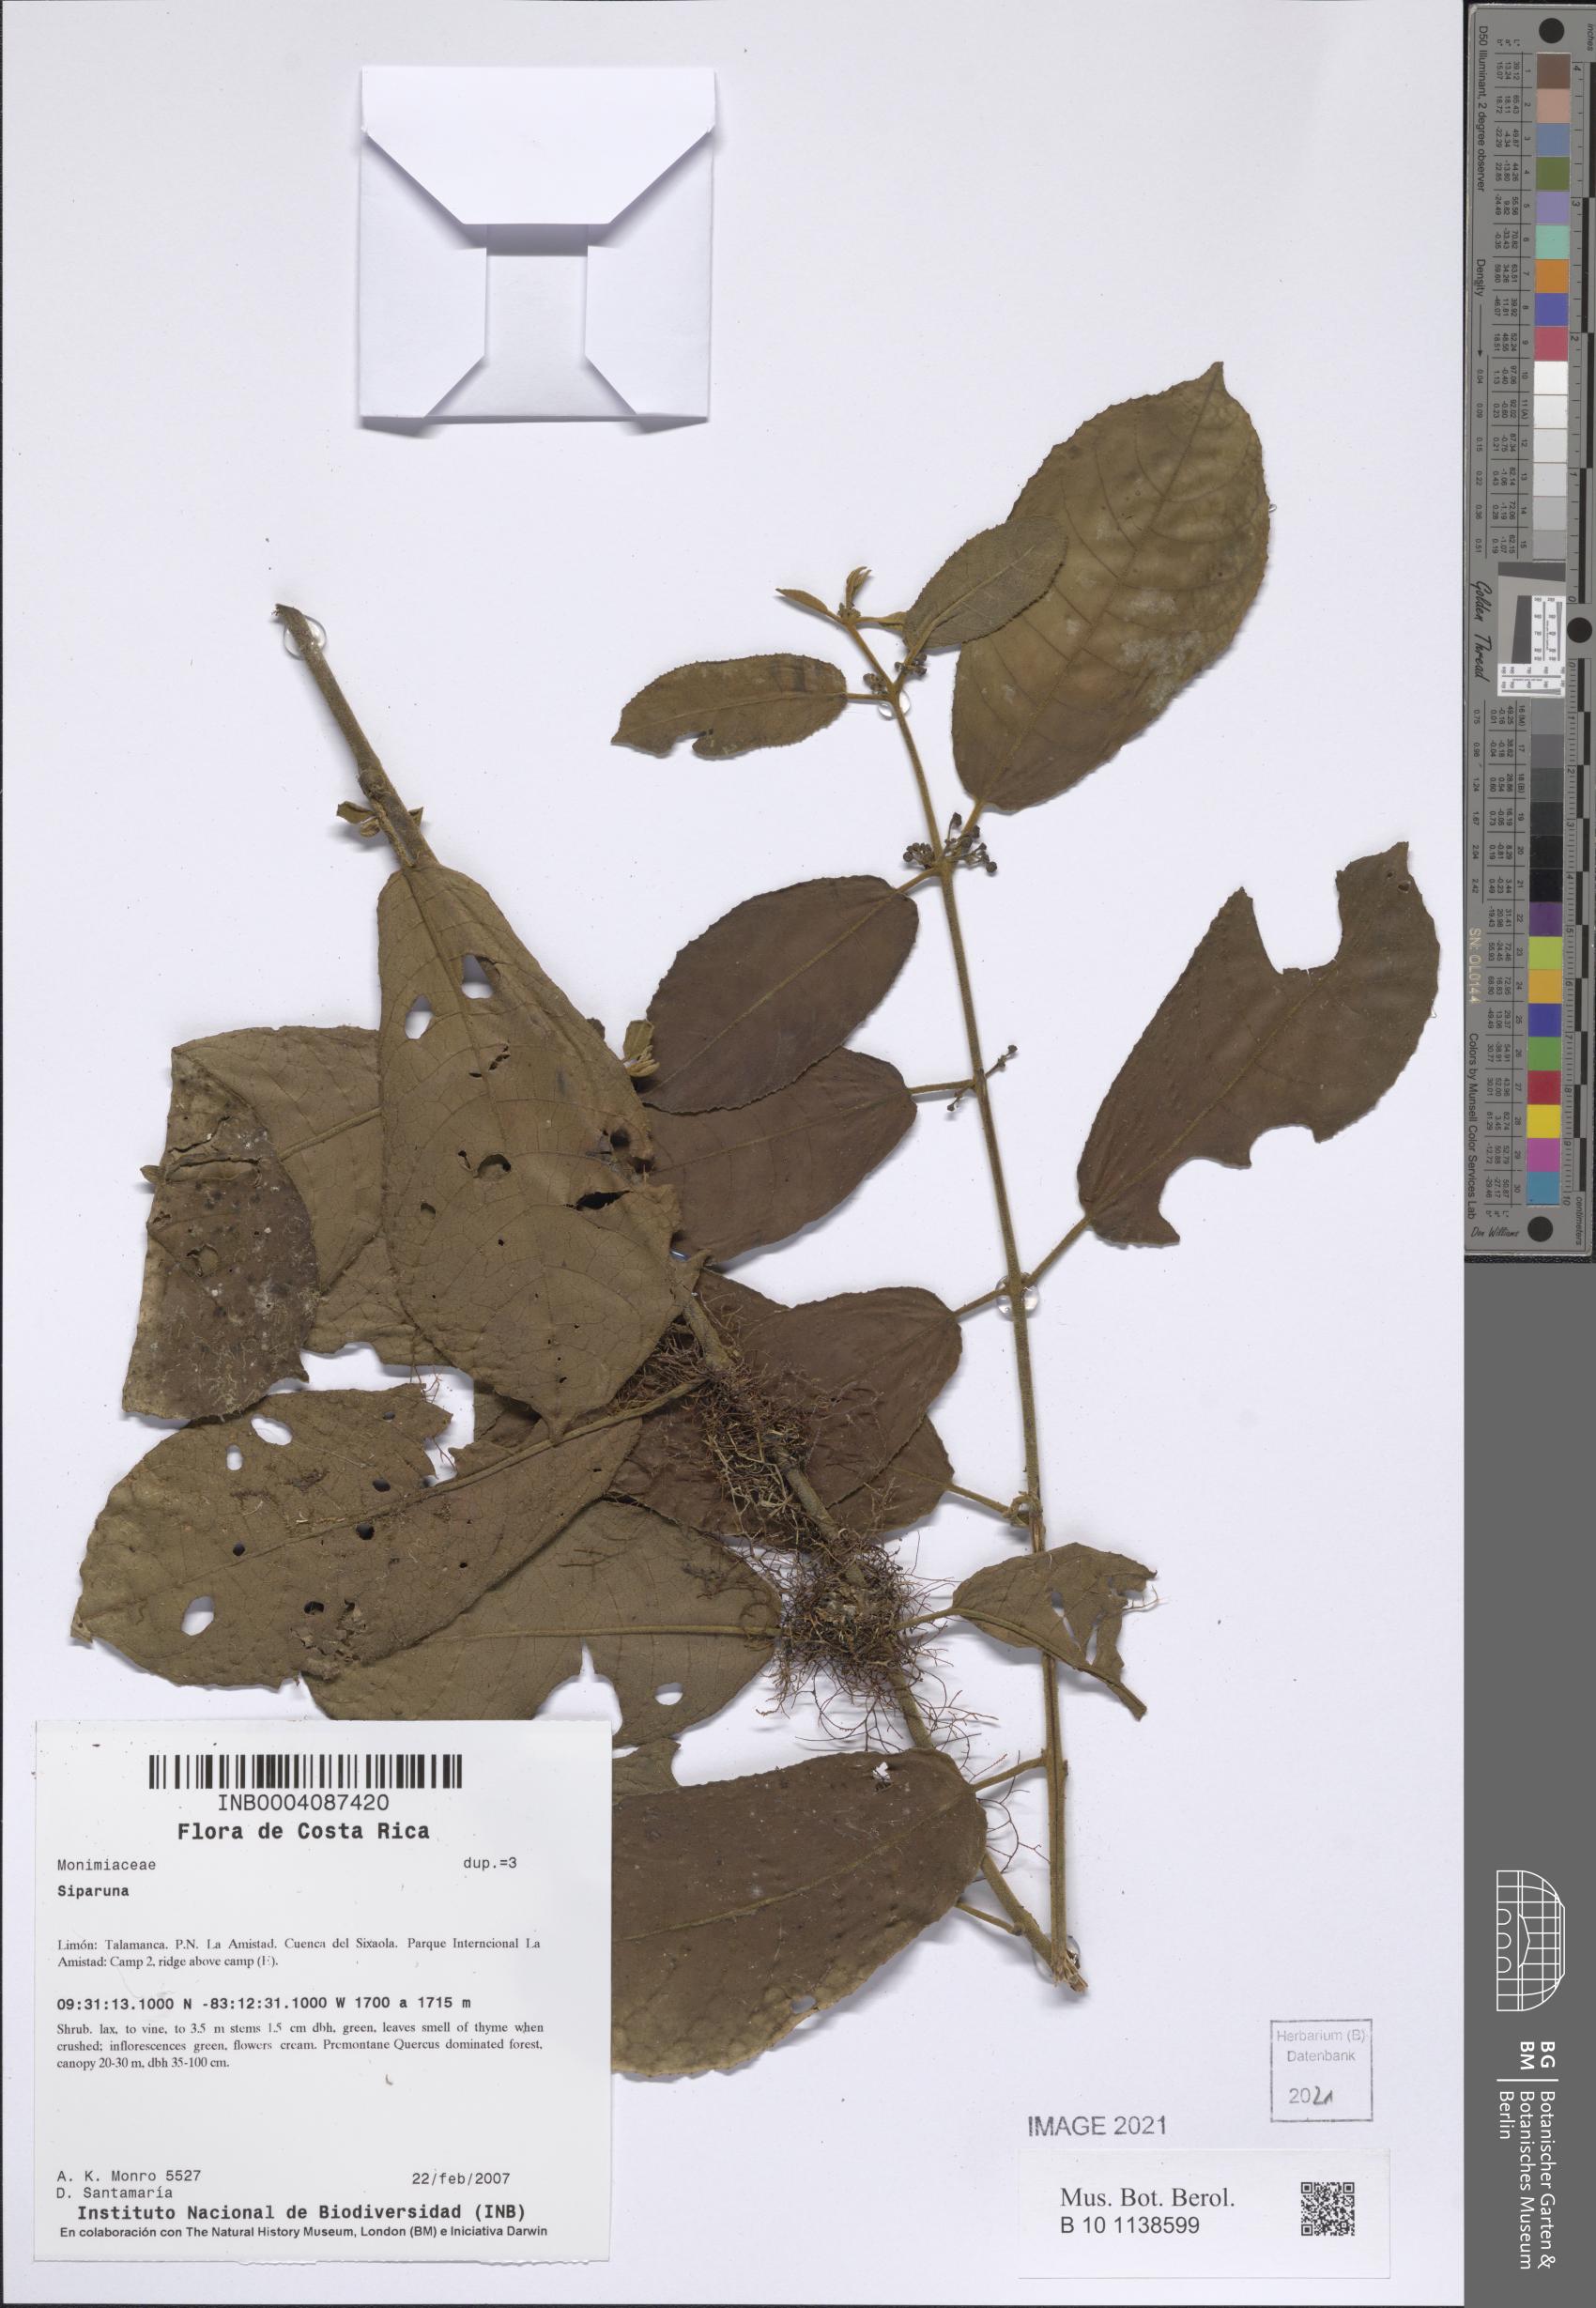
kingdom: Plantae
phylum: Tracheophyta
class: Magnoliopsida
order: Laurales
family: Siparunaceae
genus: Siparuna
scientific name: Siparuna
